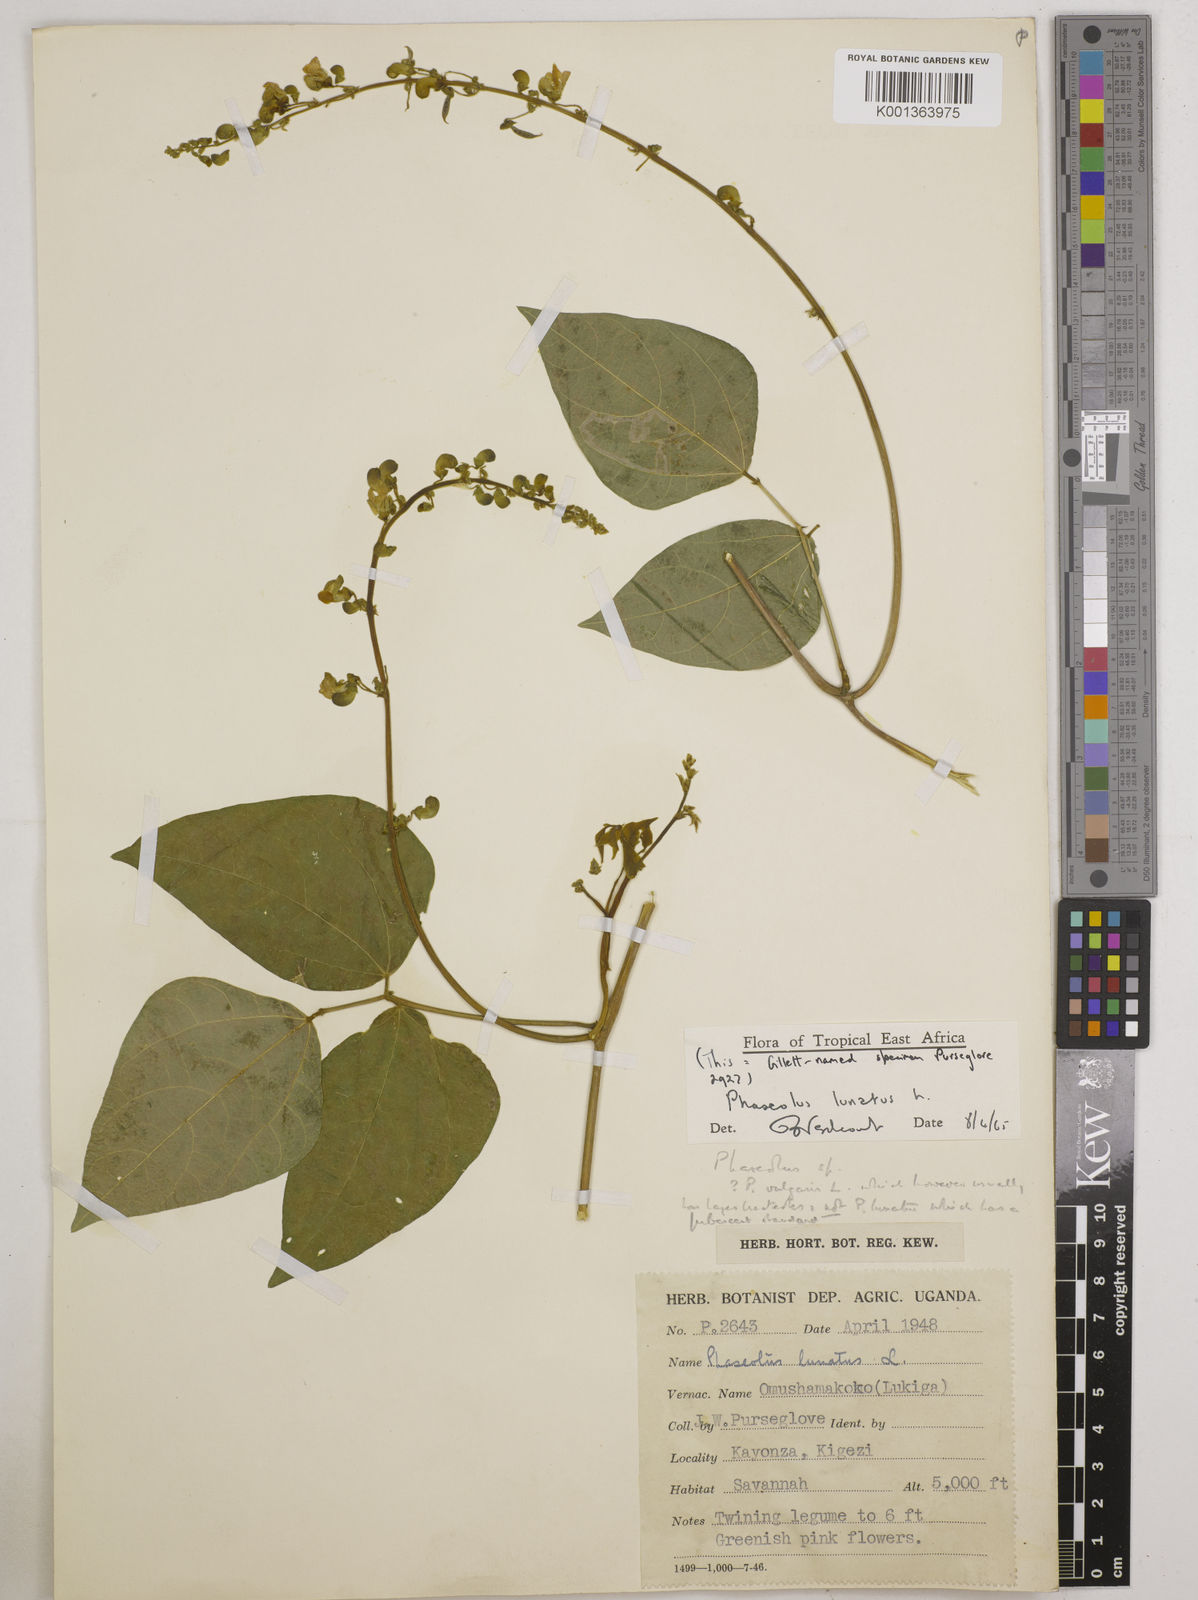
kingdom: Plantae
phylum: Tracheophyta
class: Magnoliopsida
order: Fabales
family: Fabaceae
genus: Phaseolus
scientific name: Phaseolus lunatus
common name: Sieva bean
